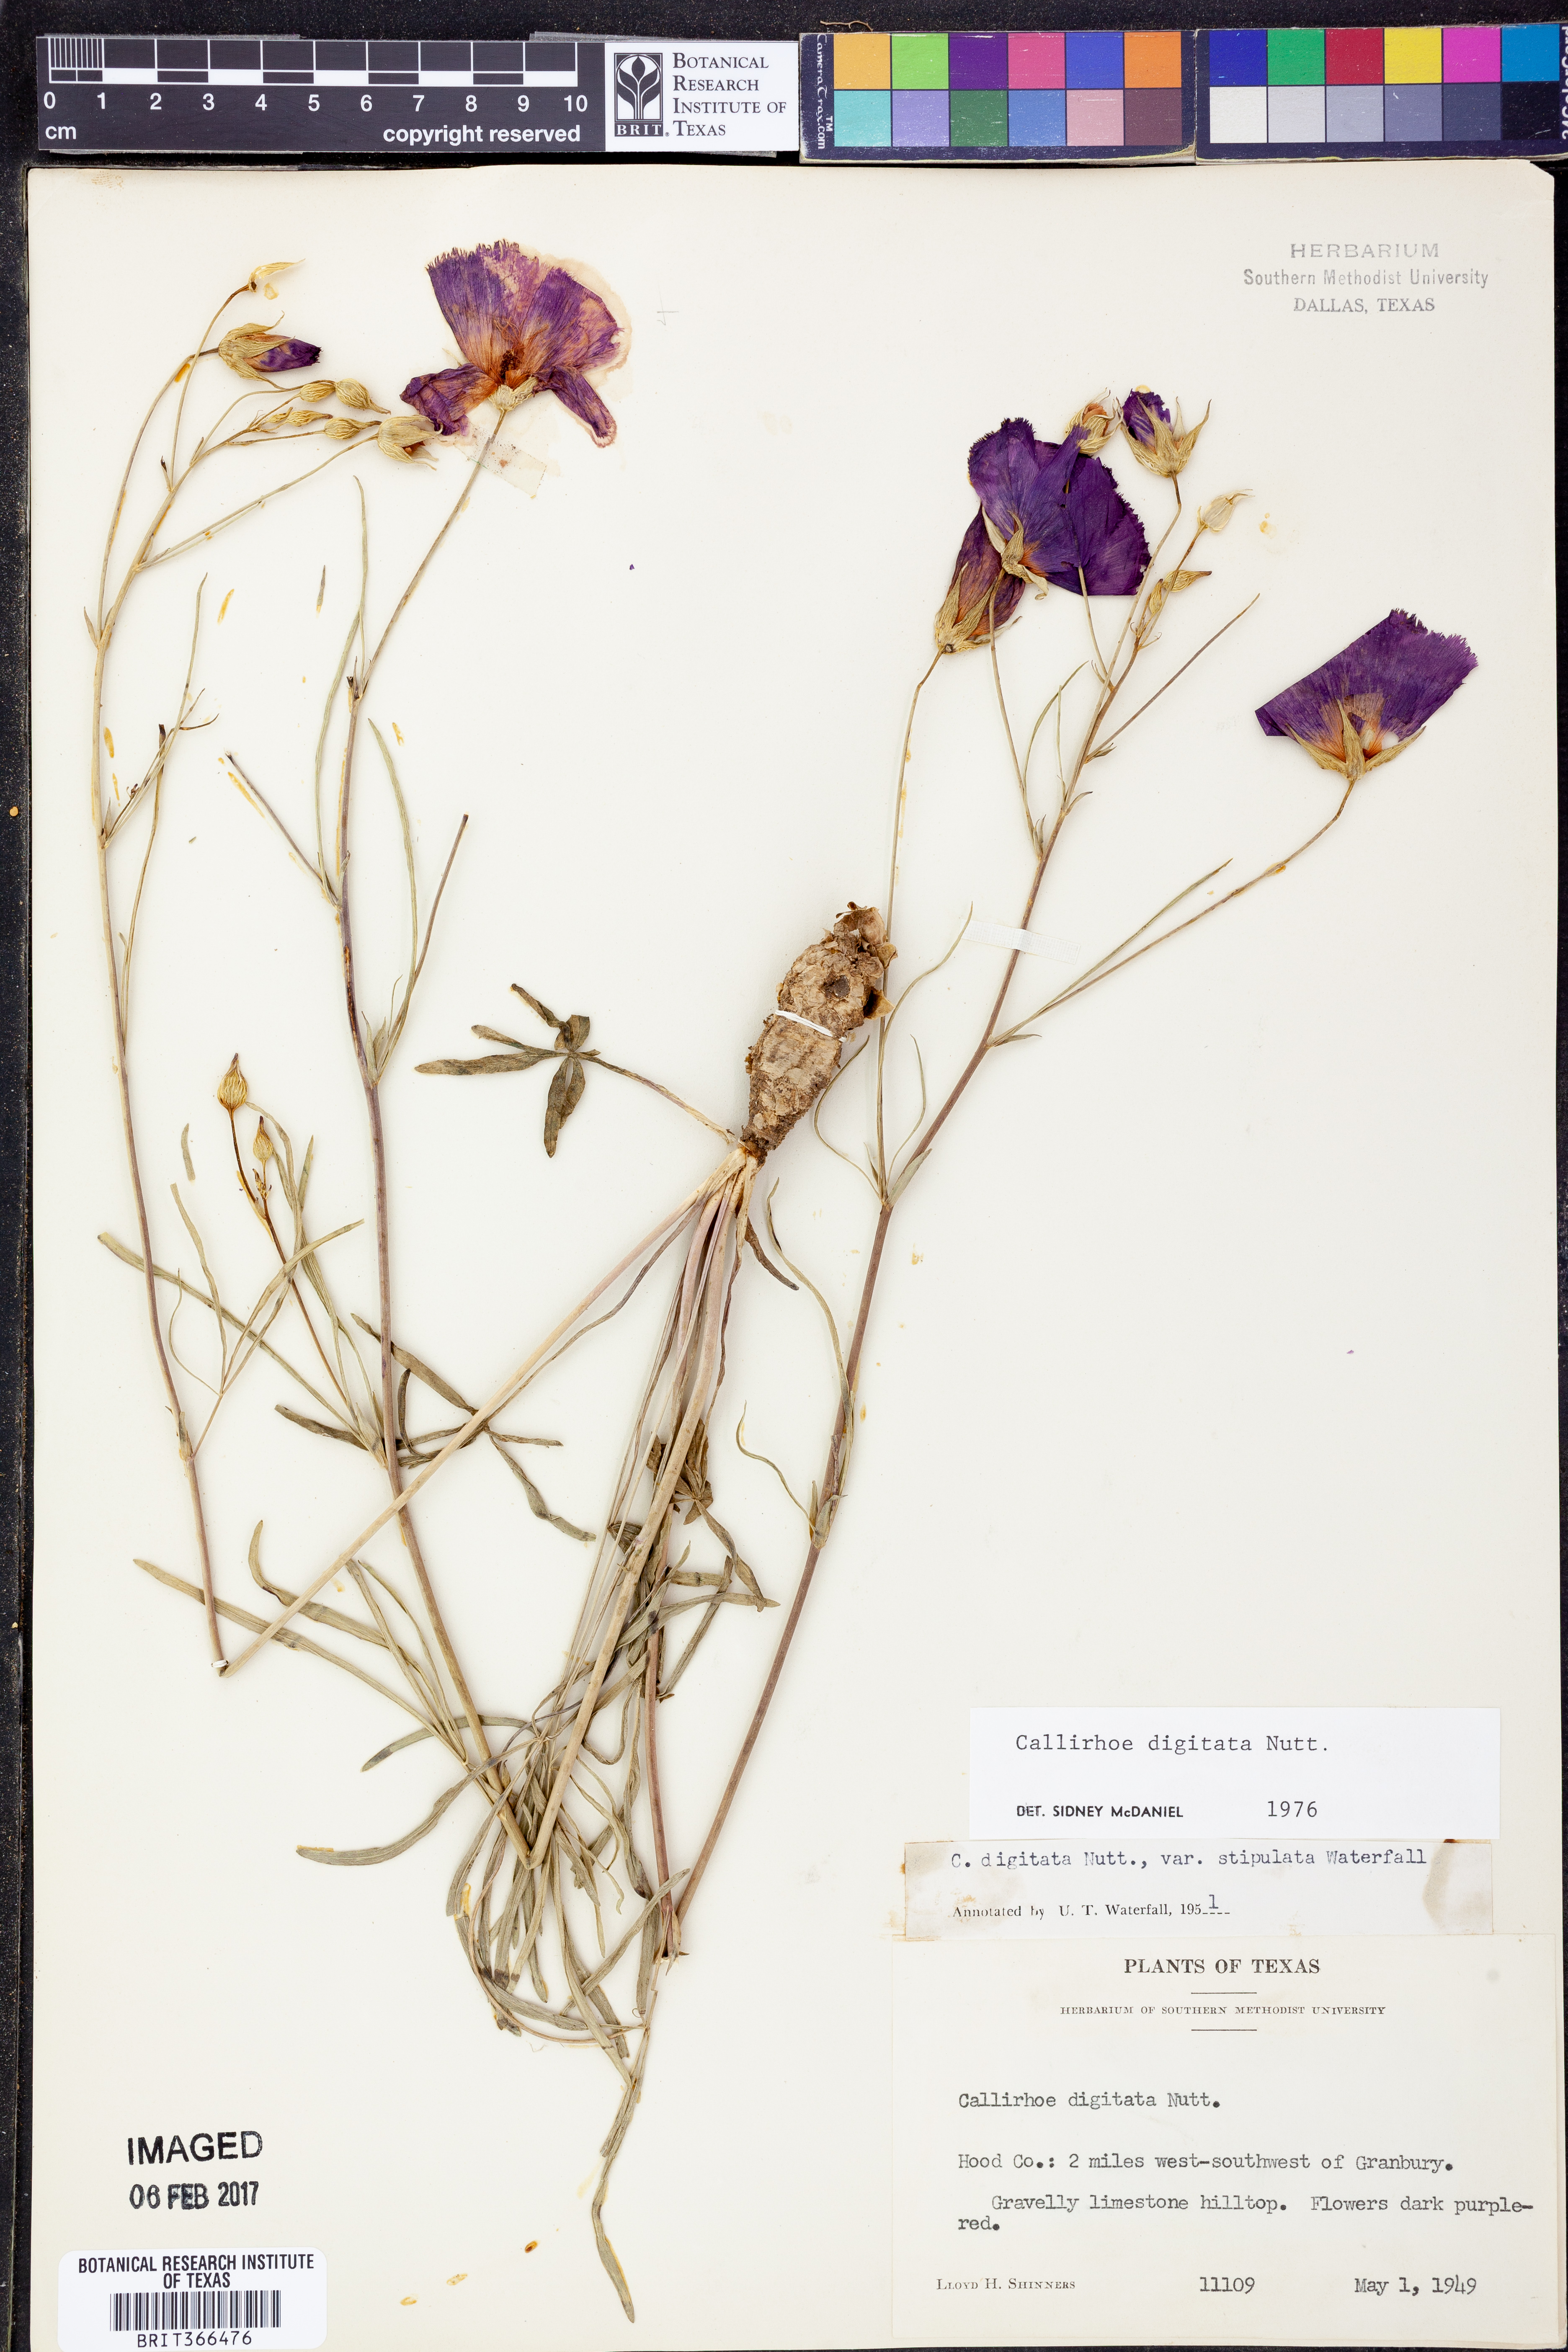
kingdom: Plantae
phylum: Tracheophyta
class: Magnoliopsida
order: Malvales
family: Malvaceae
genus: Callirhoe
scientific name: Callirhoe digitata
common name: Finger poppy-mallow
